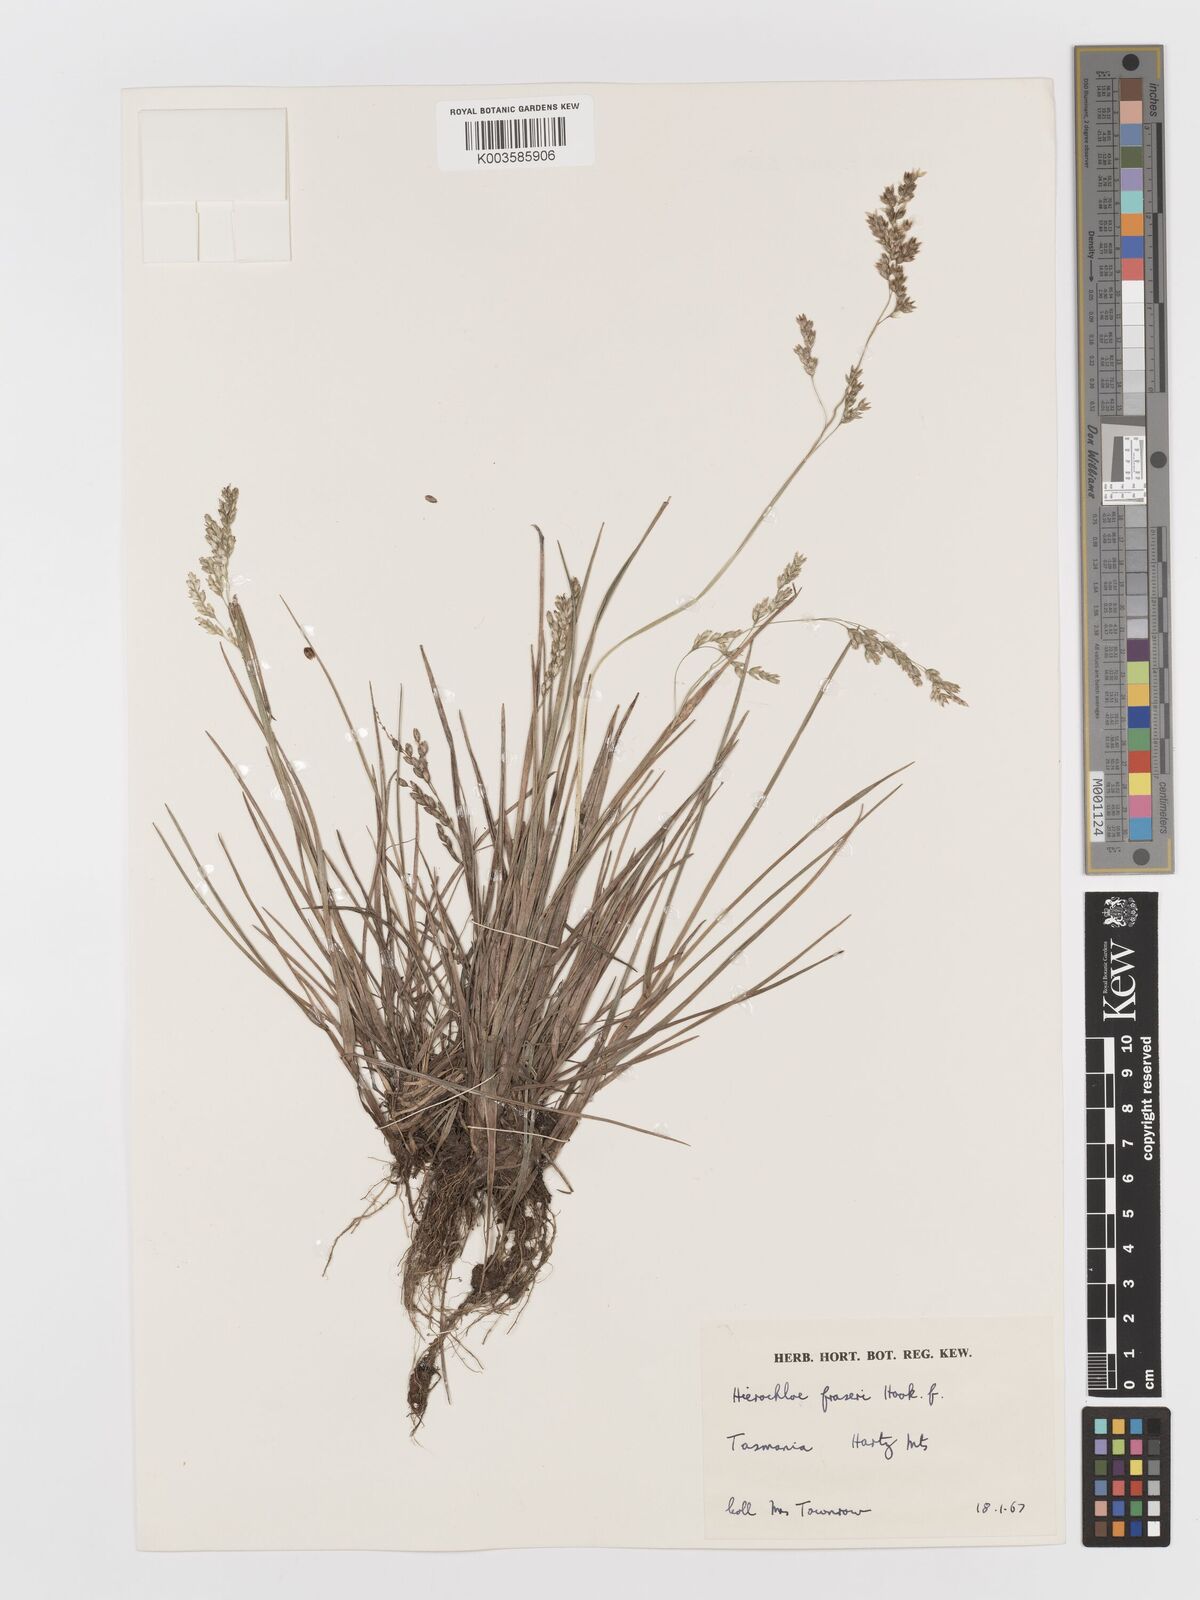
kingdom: Plantae
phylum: Tracheophyta
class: Liliopsida
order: Poales
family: Poaceae
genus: Anthoxanthum
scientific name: Anthoxanthum redolens
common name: Sweet holy grass
